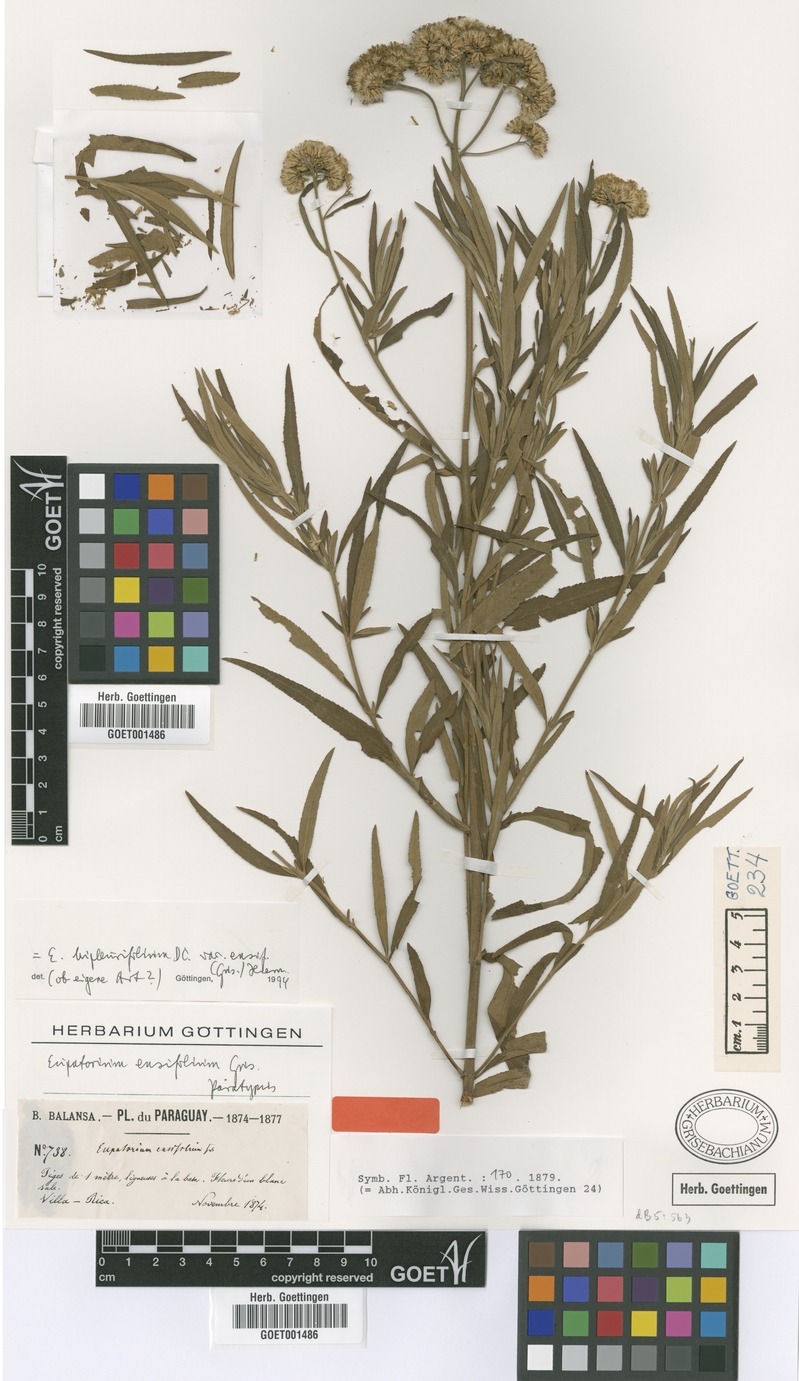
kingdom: Plantae
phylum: Tracheophyta
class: Magnoliopsida
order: Asterales
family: Asteraceae
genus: Campovassouria
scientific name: Campovassouria cruciata
